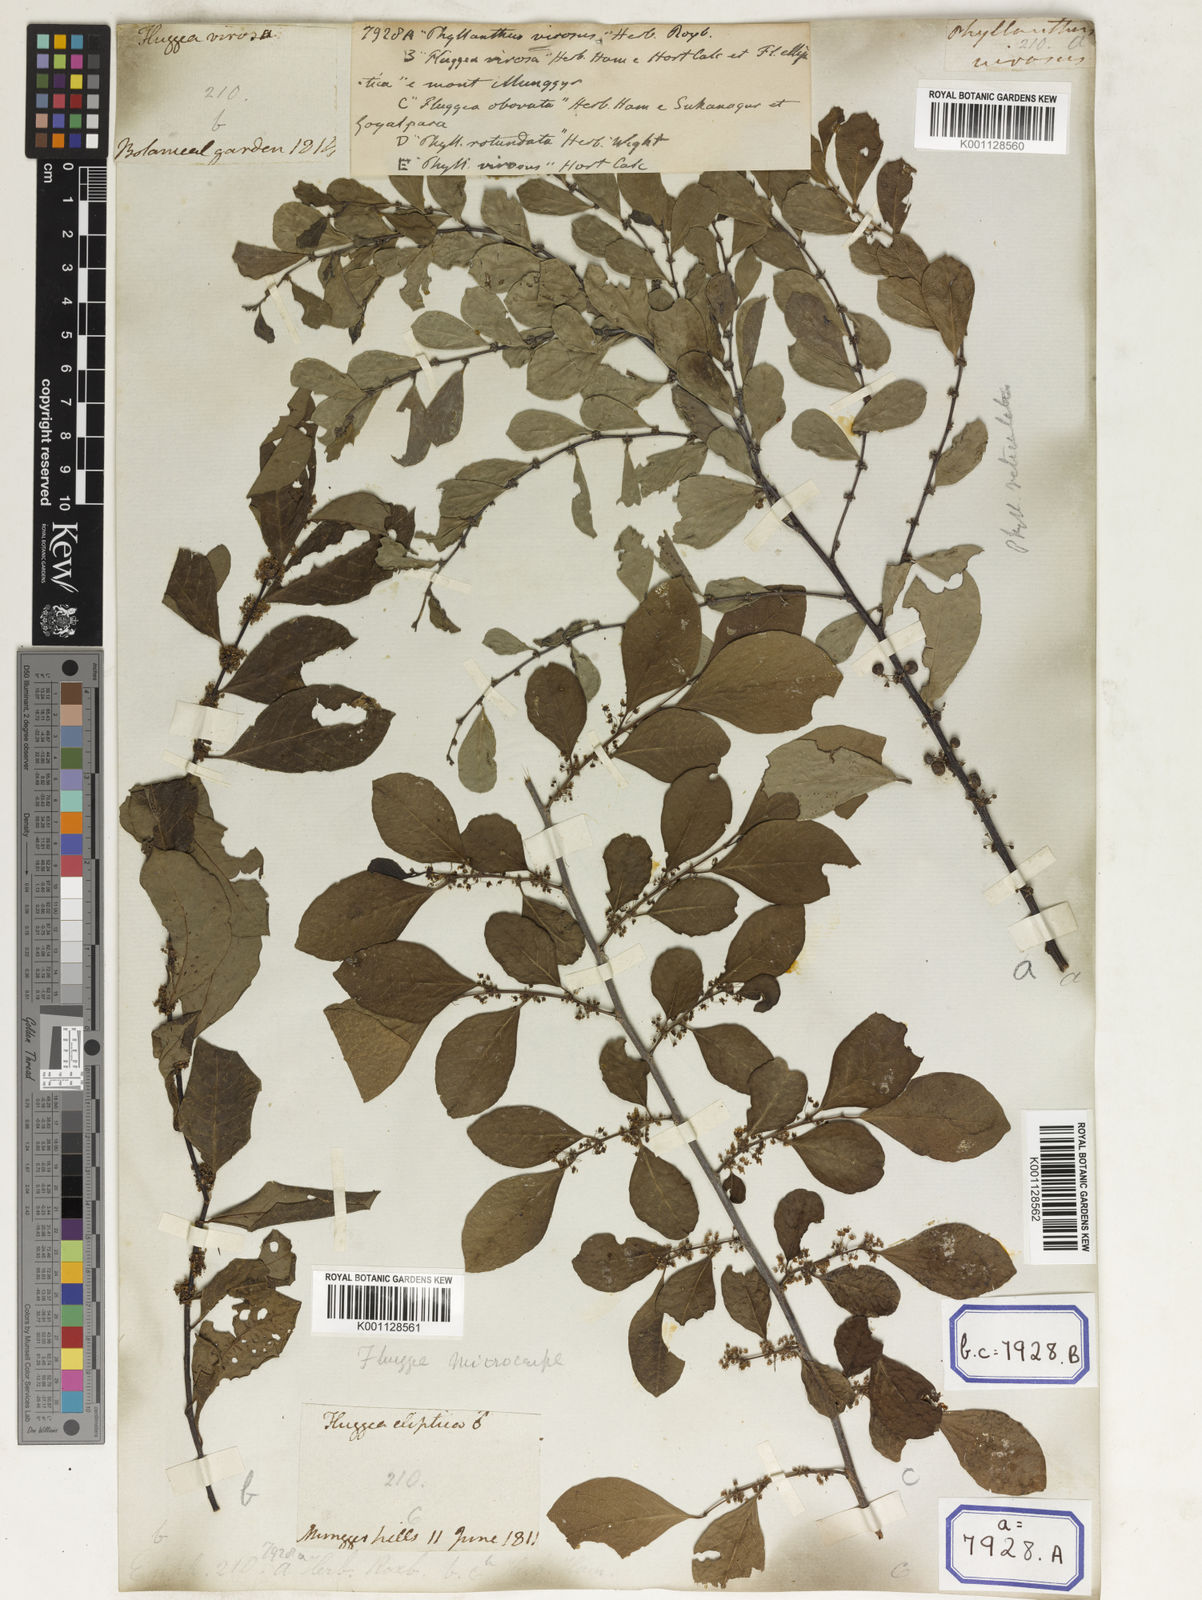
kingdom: Plantae
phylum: Tracheophyta
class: Magnoliopsida
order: Malpighiales
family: Euphorbiaceae
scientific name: Euphorbiaceae
